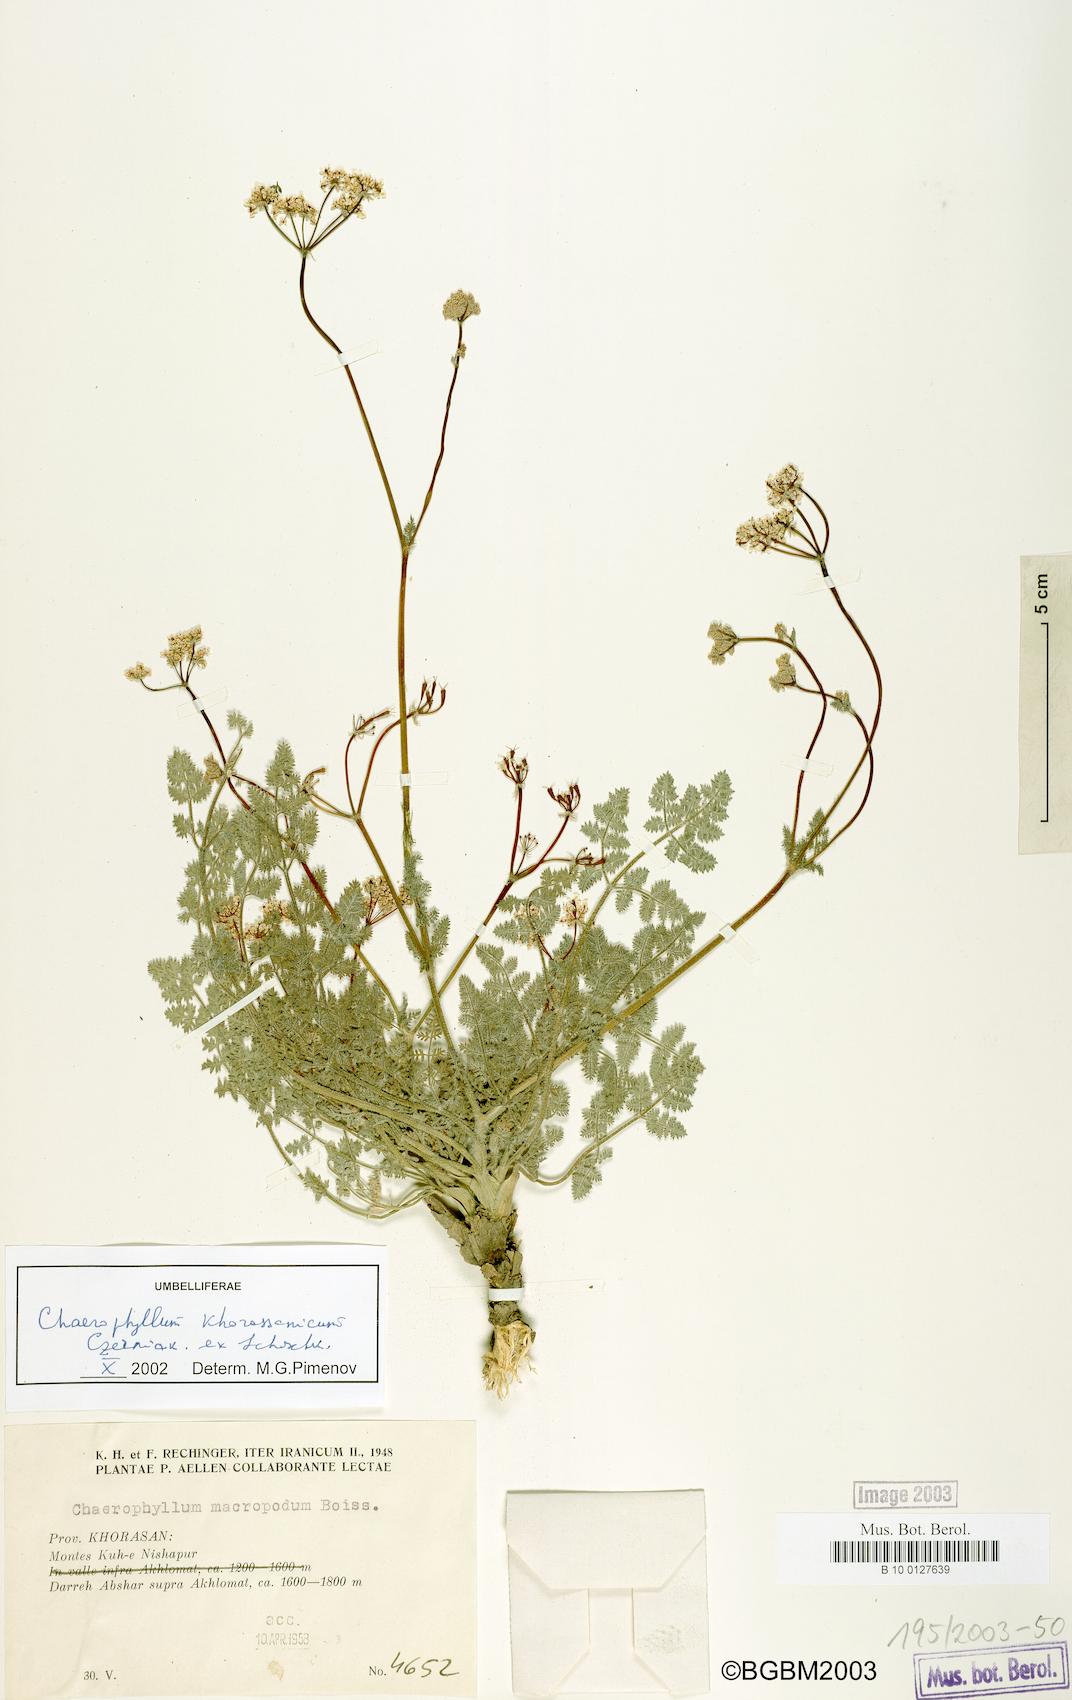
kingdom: Plantae
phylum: Tracheophyta
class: Magnoliopsida
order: Apiales
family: Apiaceae
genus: Chaerophyllum
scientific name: Chaerophyllum khorassanicum
